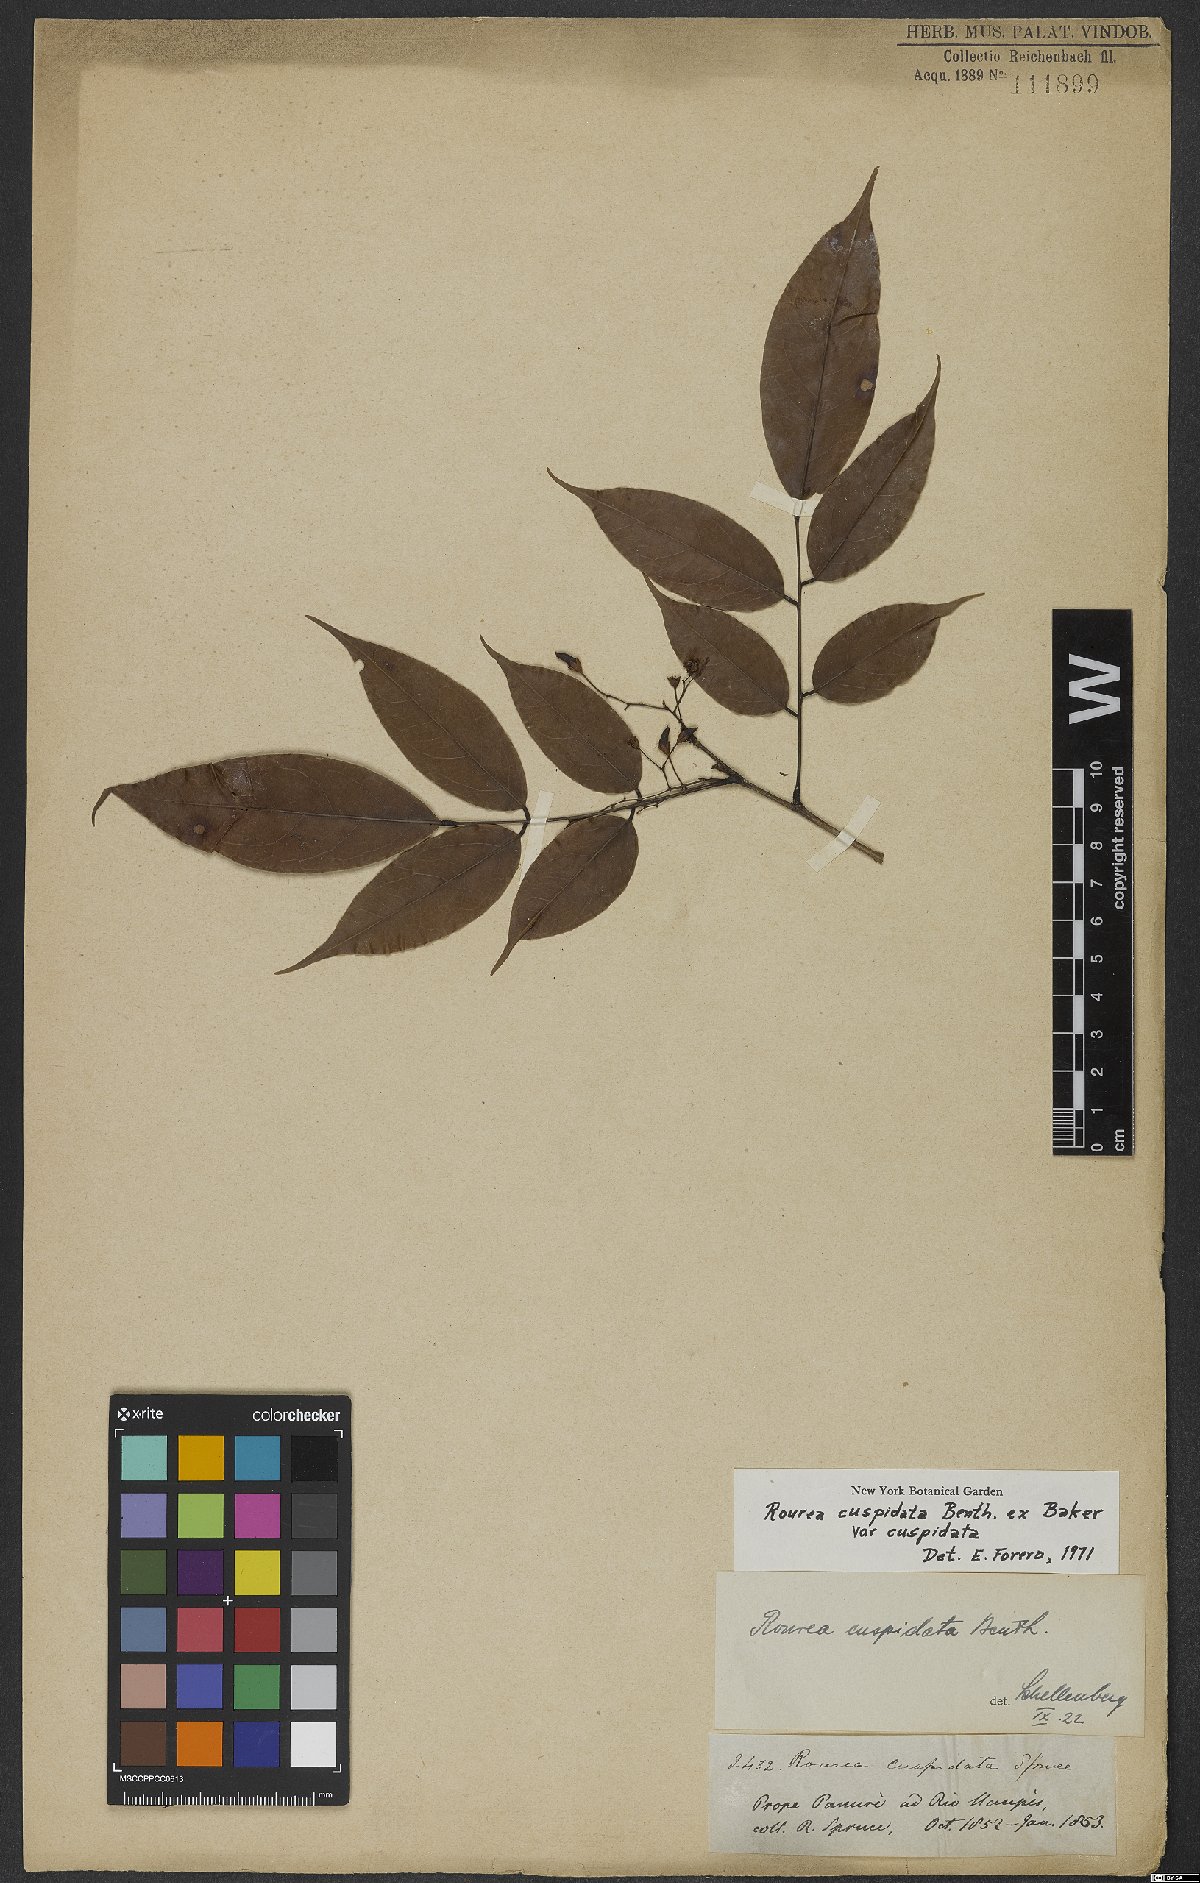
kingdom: Plantae
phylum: Tracheophyta
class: Magnoliopsida
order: Oxalidales
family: Connaraceae
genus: Rourea
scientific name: Rourea cuspidata
